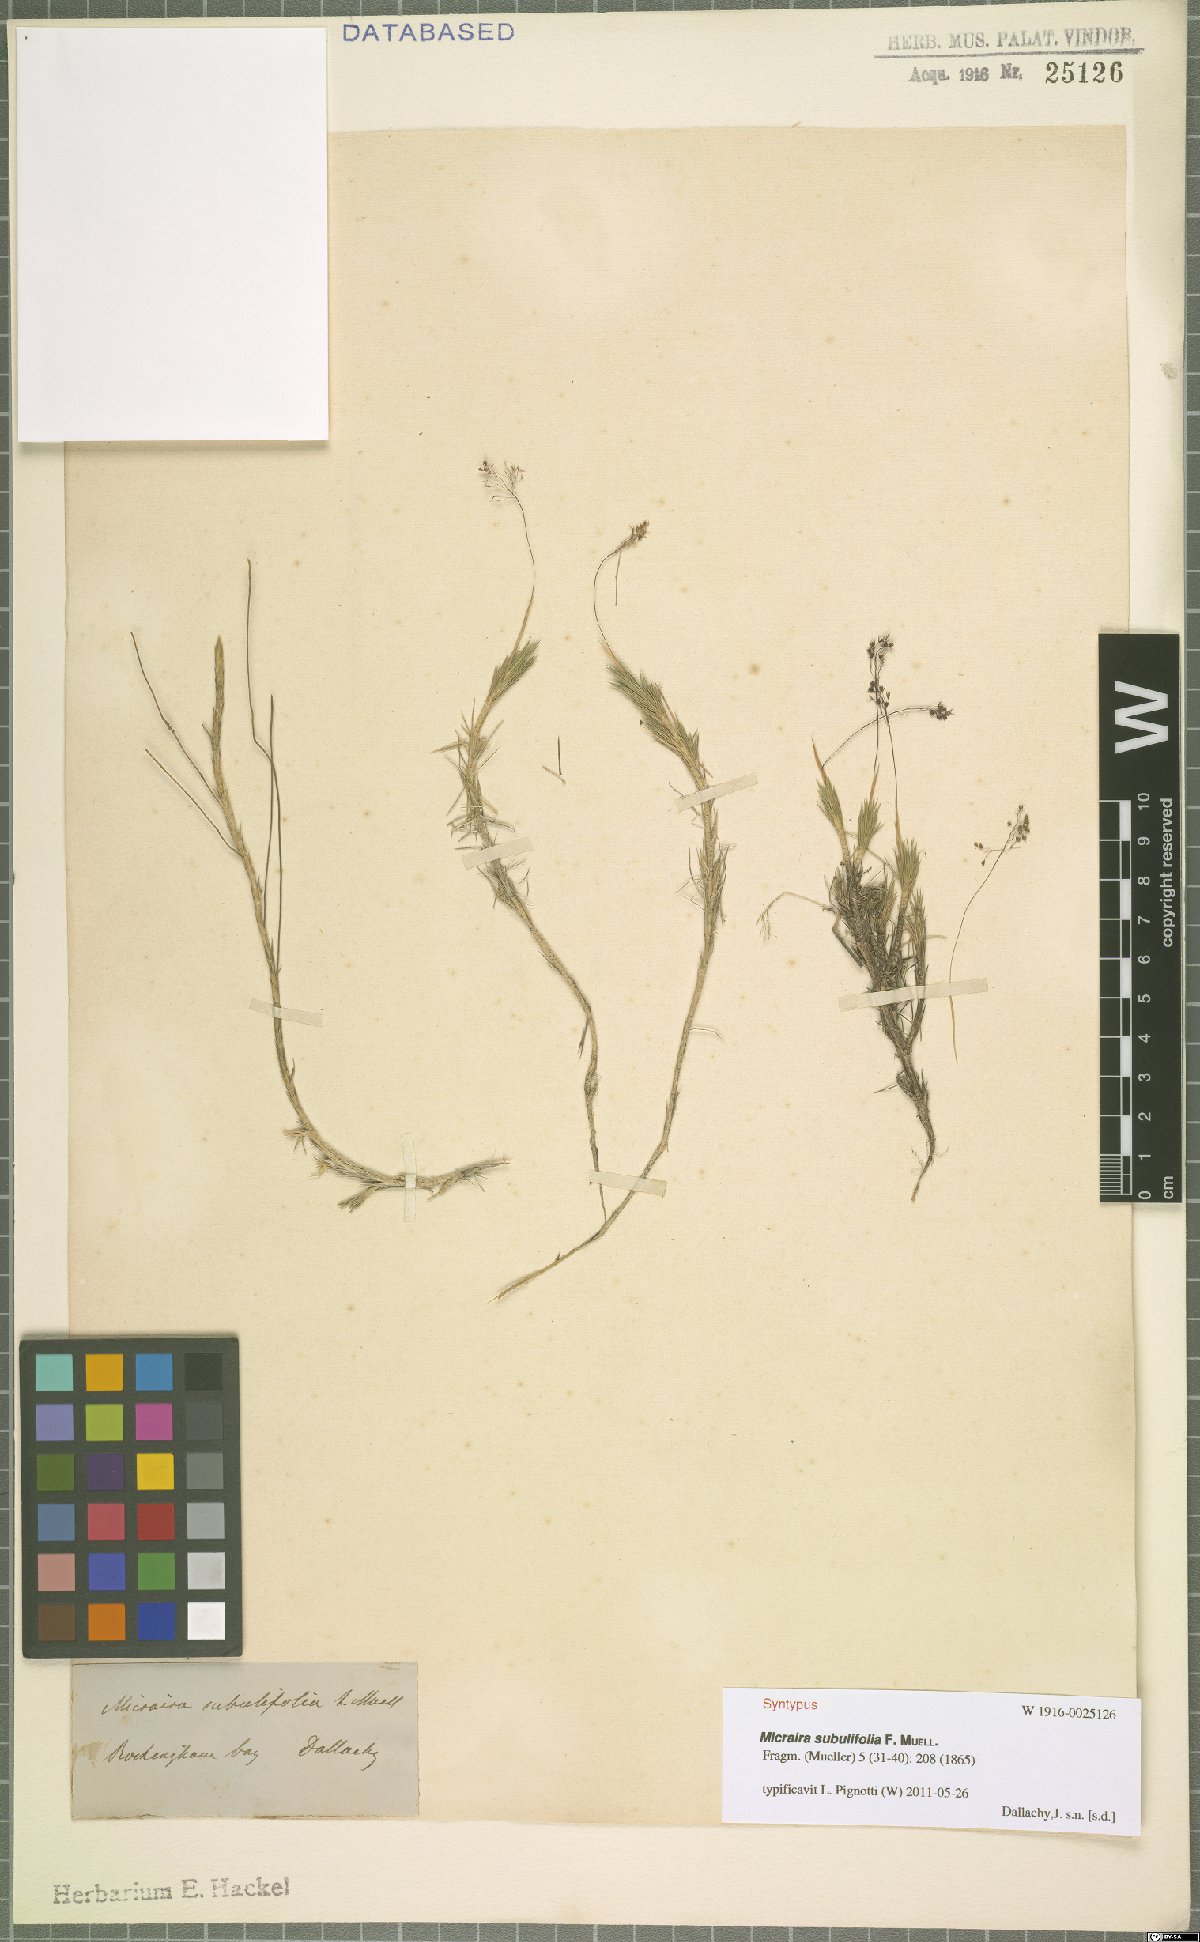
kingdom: Plantae
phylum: Tracheophyta
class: Liliopsida
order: Poales
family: Poaceae
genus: Micraira
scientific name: Micraira subulifolia
